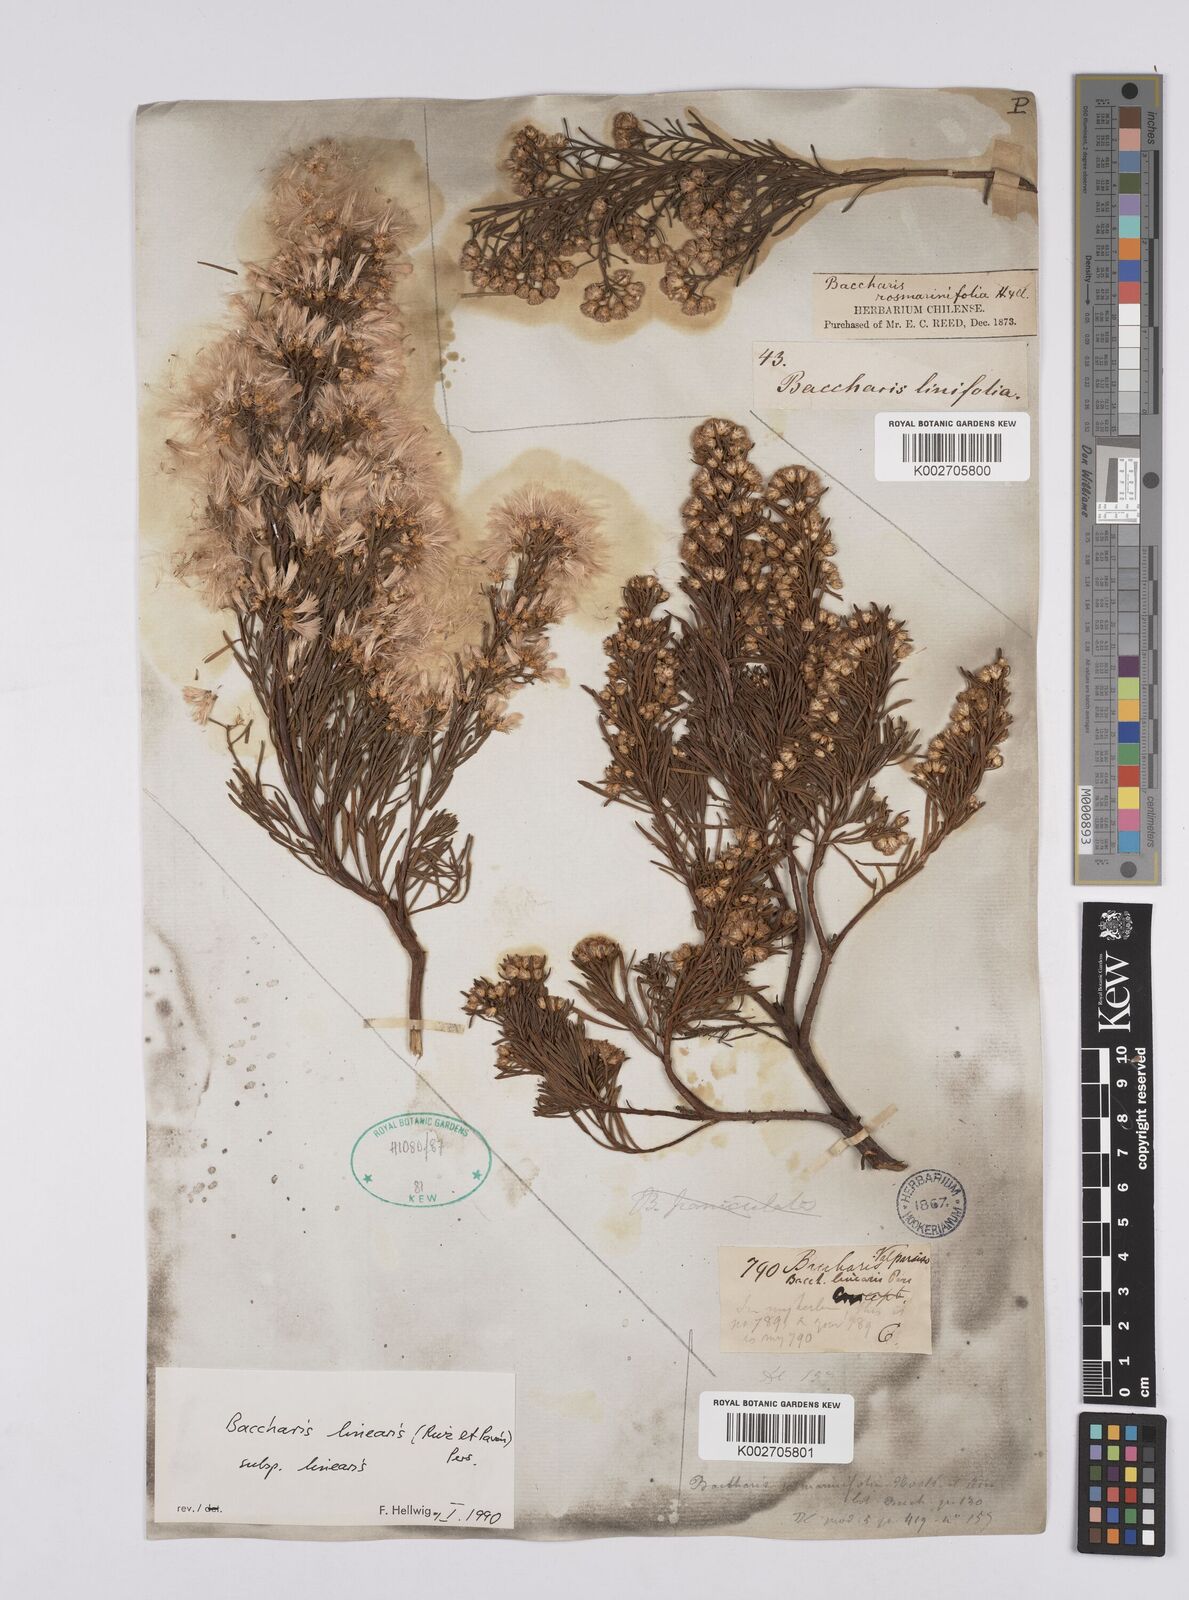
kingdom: Plantae
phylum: Tracheophyta
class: Magnoliopsida
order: Asterales
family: Asteraceae
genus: Baccharis
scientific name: Baccharis linearis
